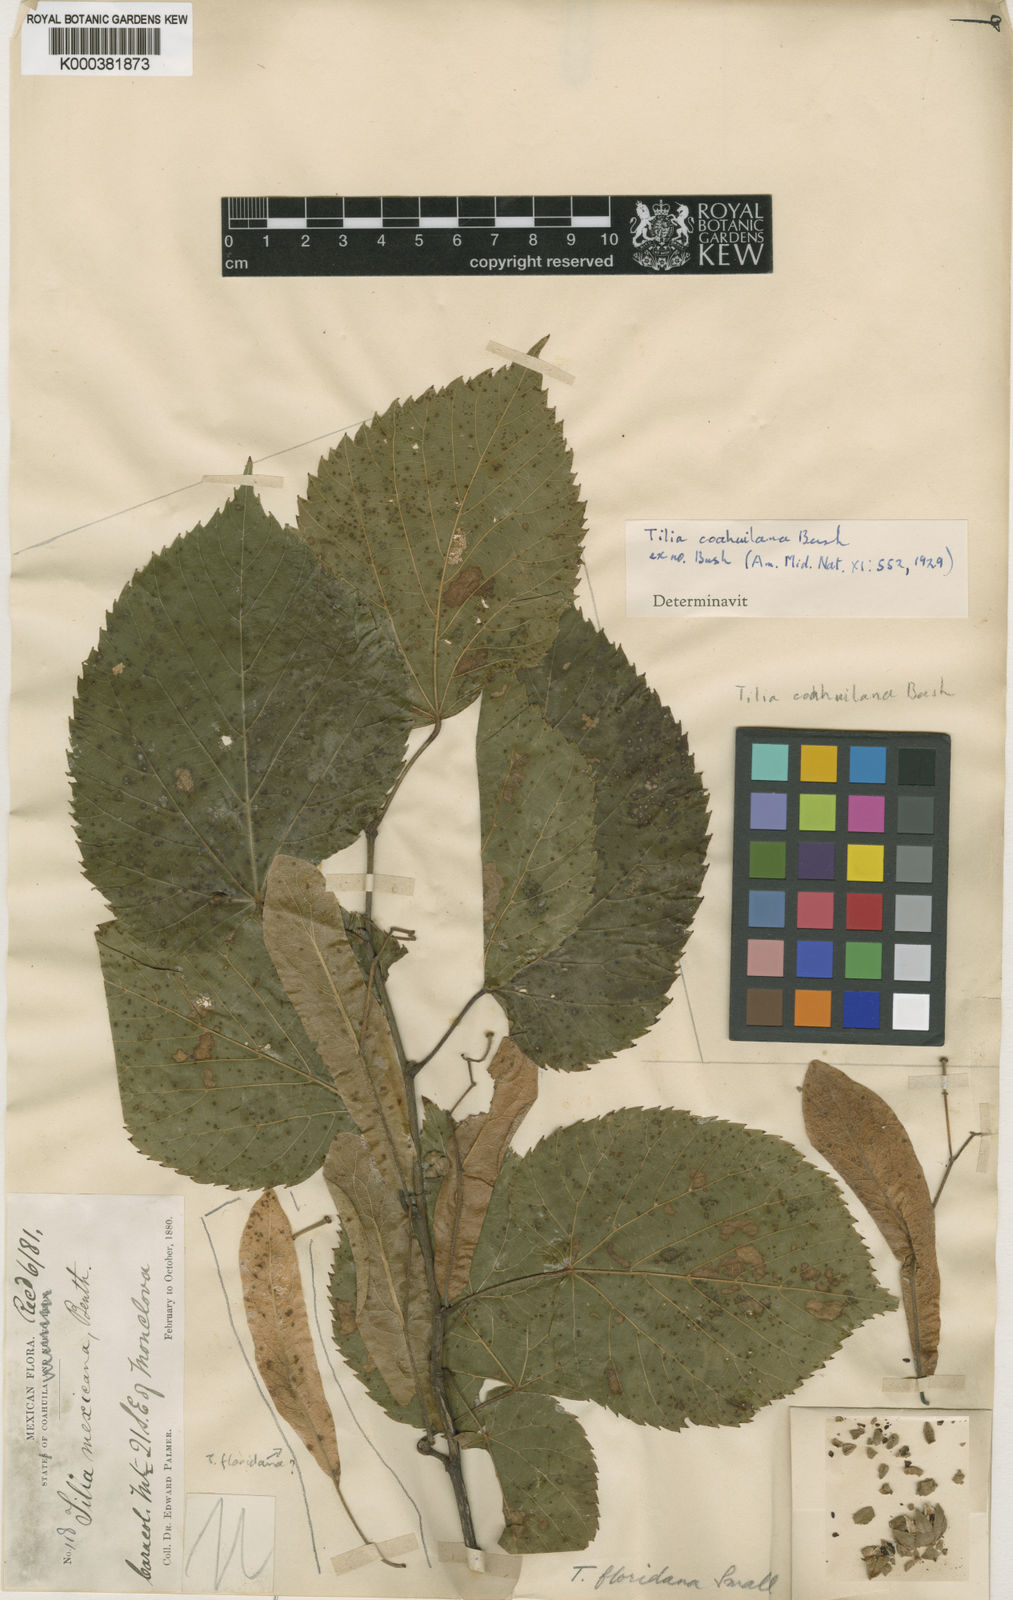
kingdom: Plantae
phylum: Tracheophyta
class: Magnoliopsida
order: Malvales
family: Malvaceae
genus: Tilia
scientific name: Tilia mexicana
